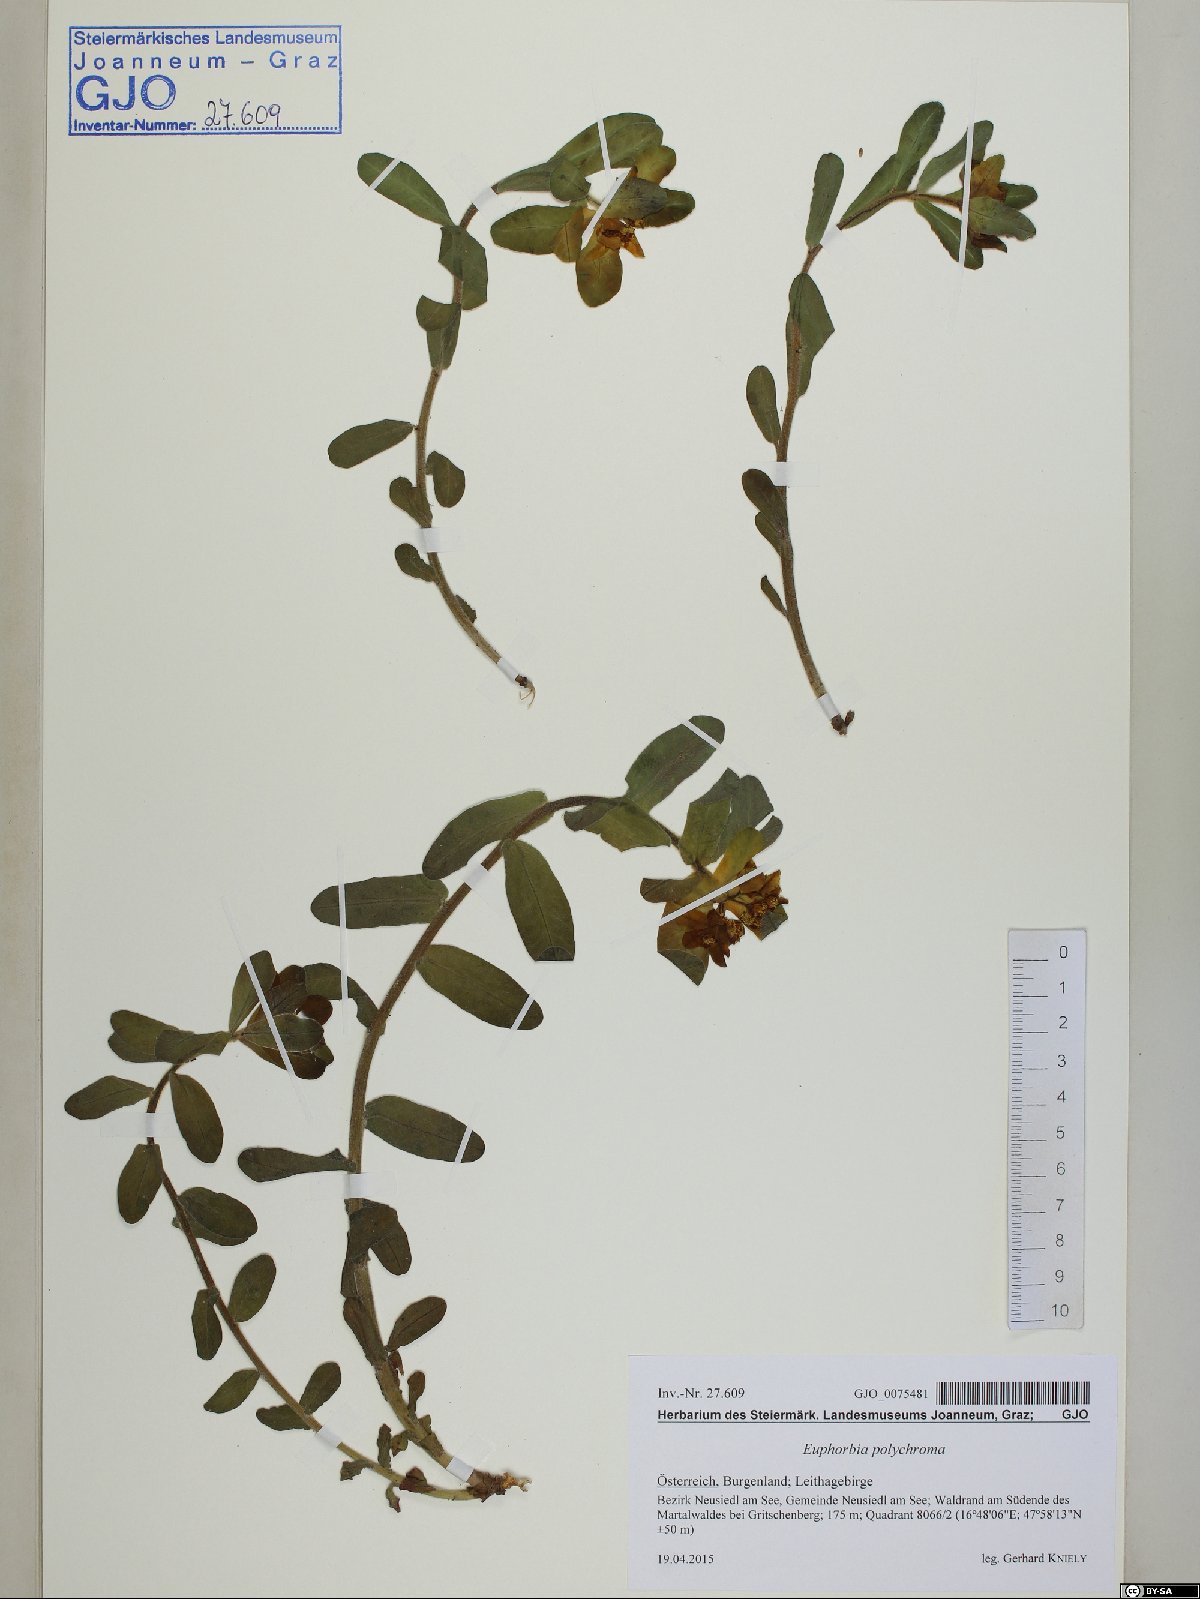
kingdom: Plantae
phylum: Tracheophyta
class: Magnoliopsida
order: Malpighiales
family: Euphorbiaceae
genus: Euphorbia
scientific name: Euphorbia epithymoides
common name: Cushion spurge
